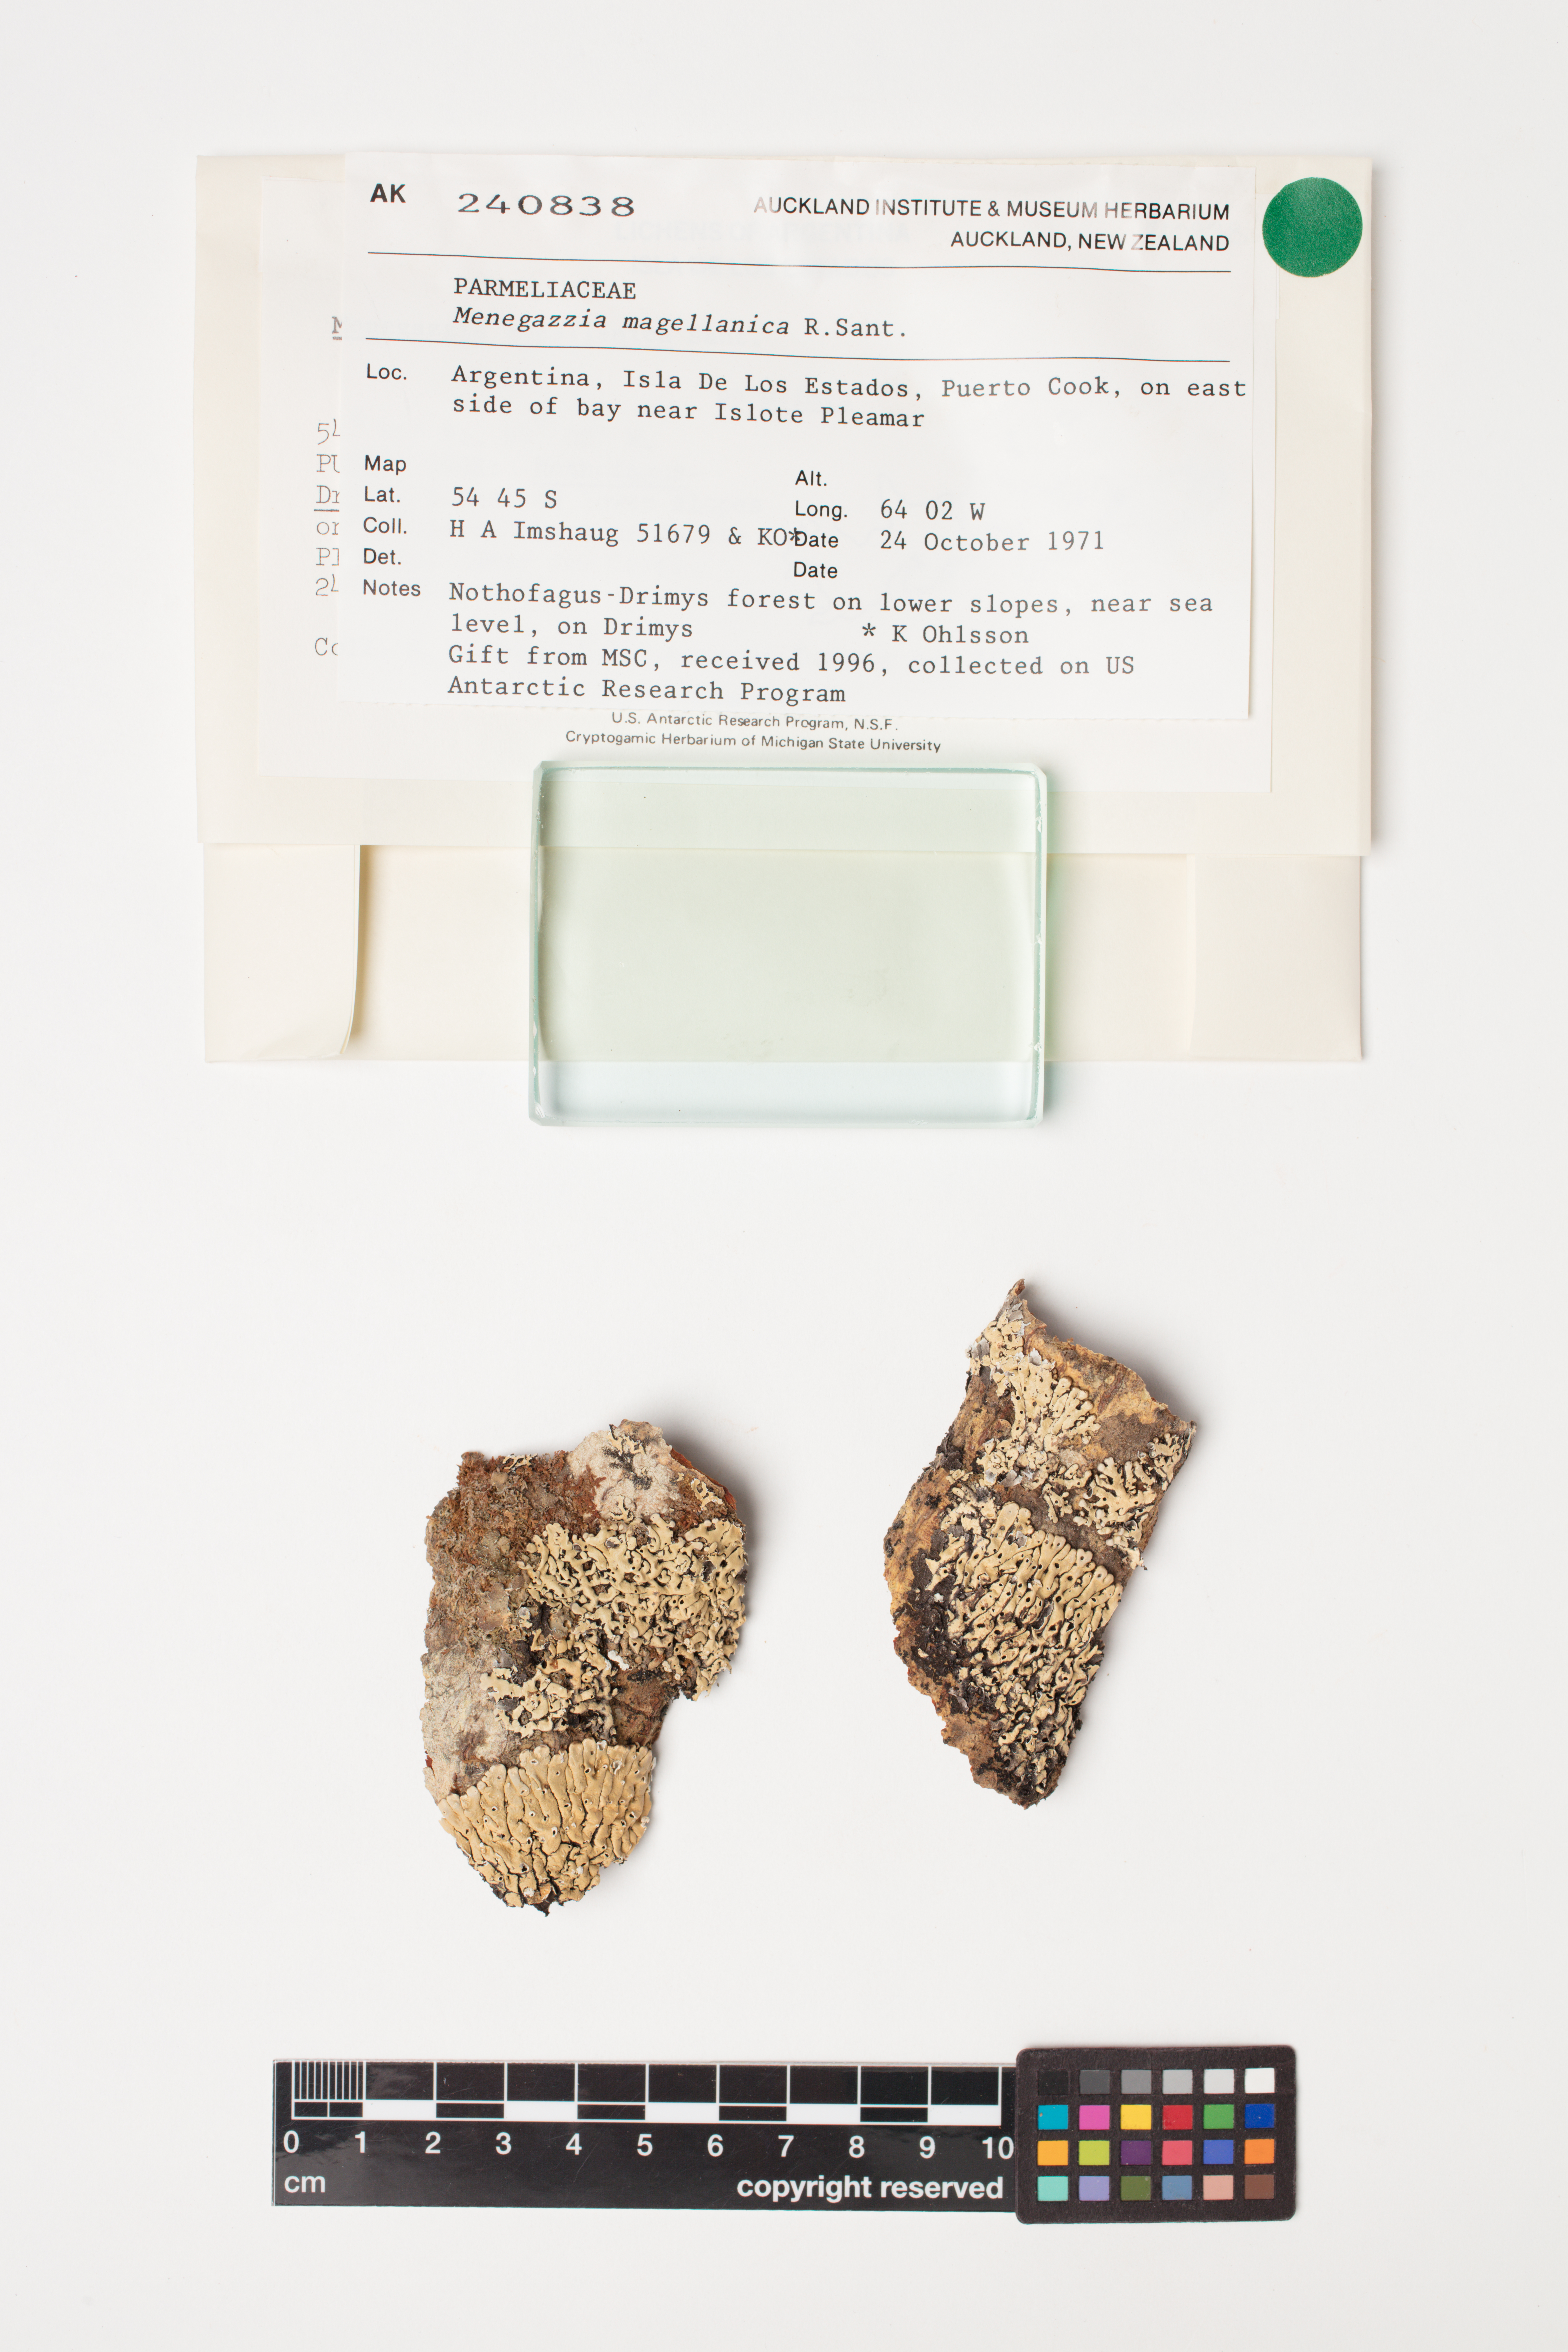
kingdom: Fungi
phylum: Ascomycota
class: Lecanoromycetes
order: Lecanorales
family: Parmeliaceae
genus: Menegazzia
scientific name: Menegazzia subpertusa
